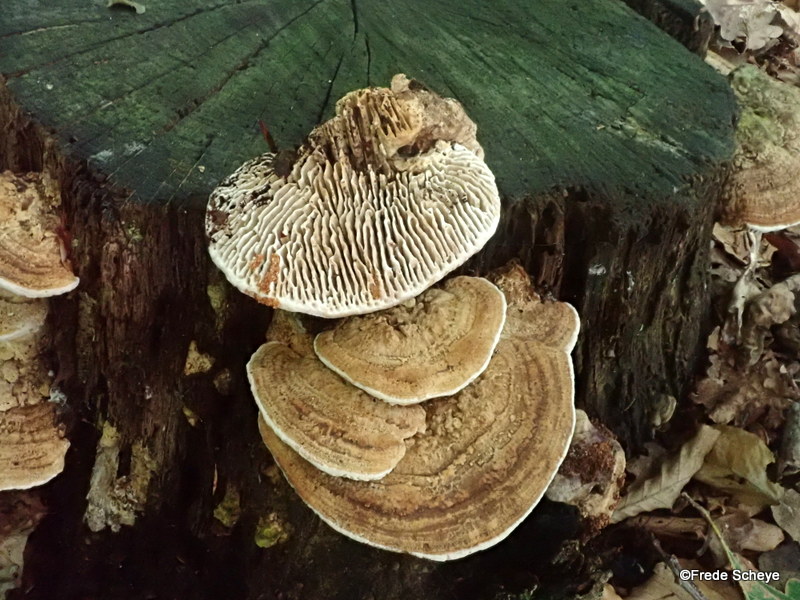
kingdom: Fungi
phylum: Basidiomycota
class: Agaricomycetes
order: Polyporales
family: Fomitopsidaceae
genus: Daedalea
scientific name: Daedalea quercina
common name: ege-labyrintsvamp
